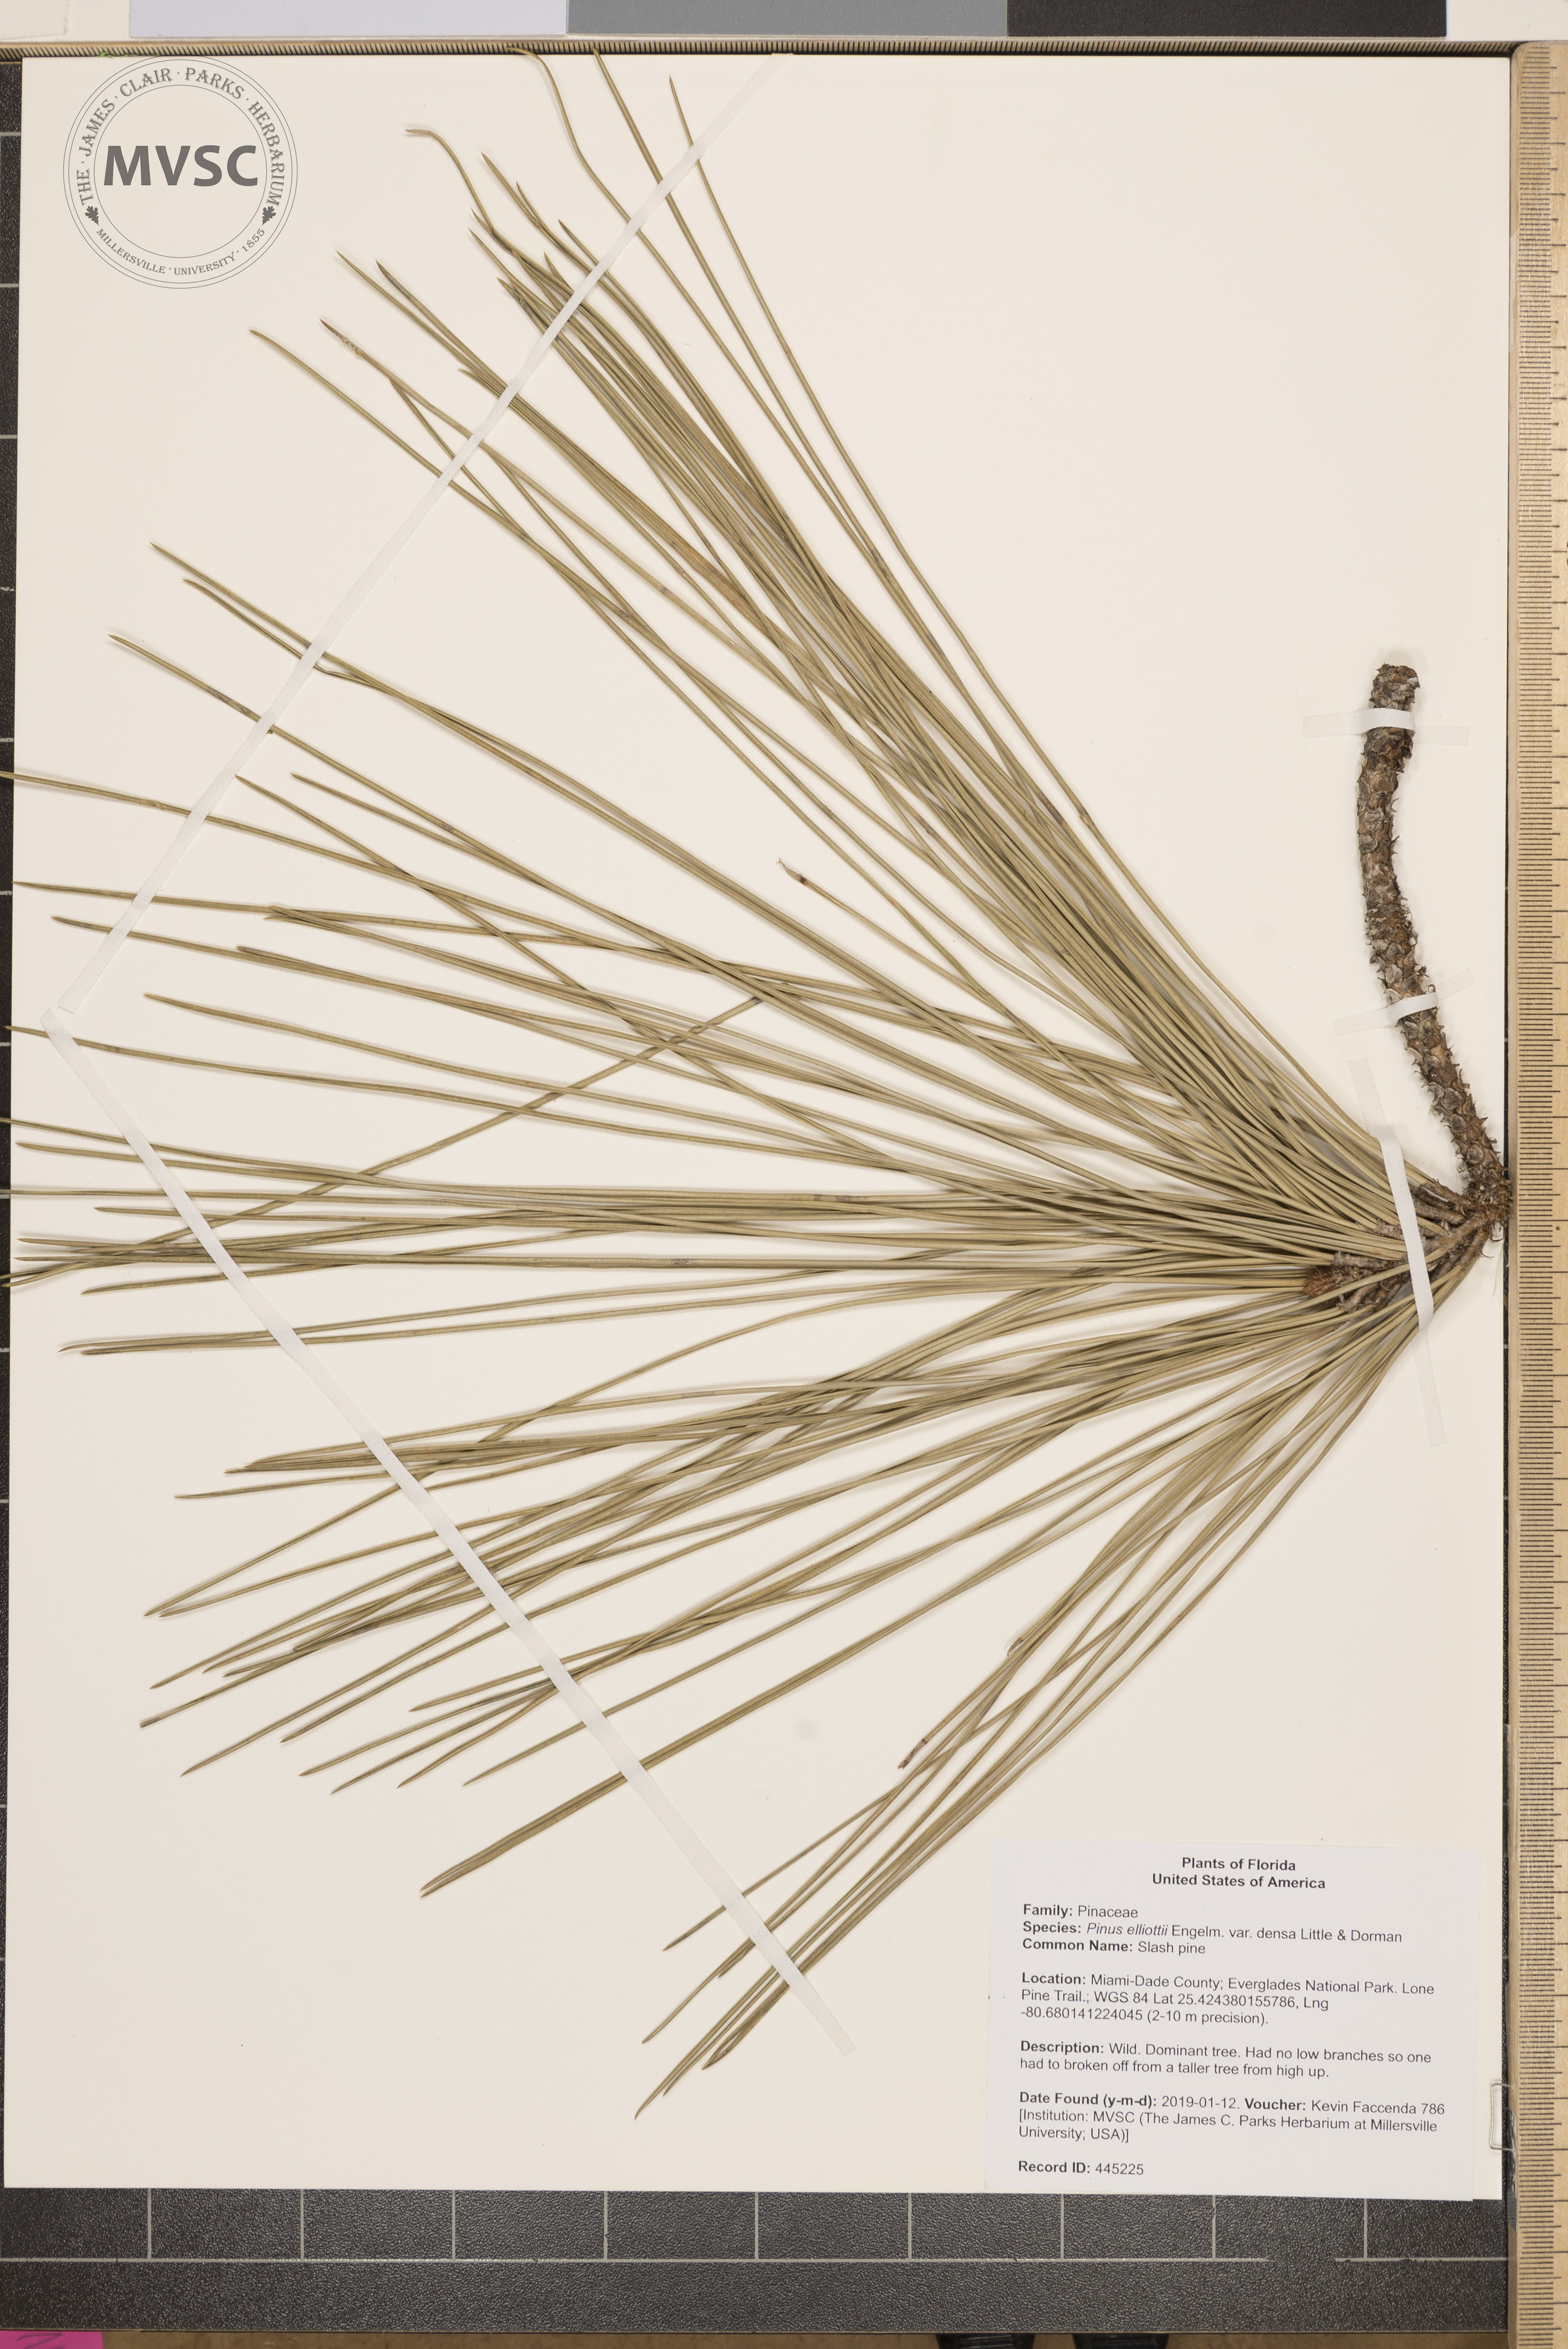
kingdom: Plantae
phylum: Tracheophyta
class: Pinopsida
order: Pinales
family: Pinaceae
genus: Pinus
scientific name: Pinus elliottii
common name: Slash pine
